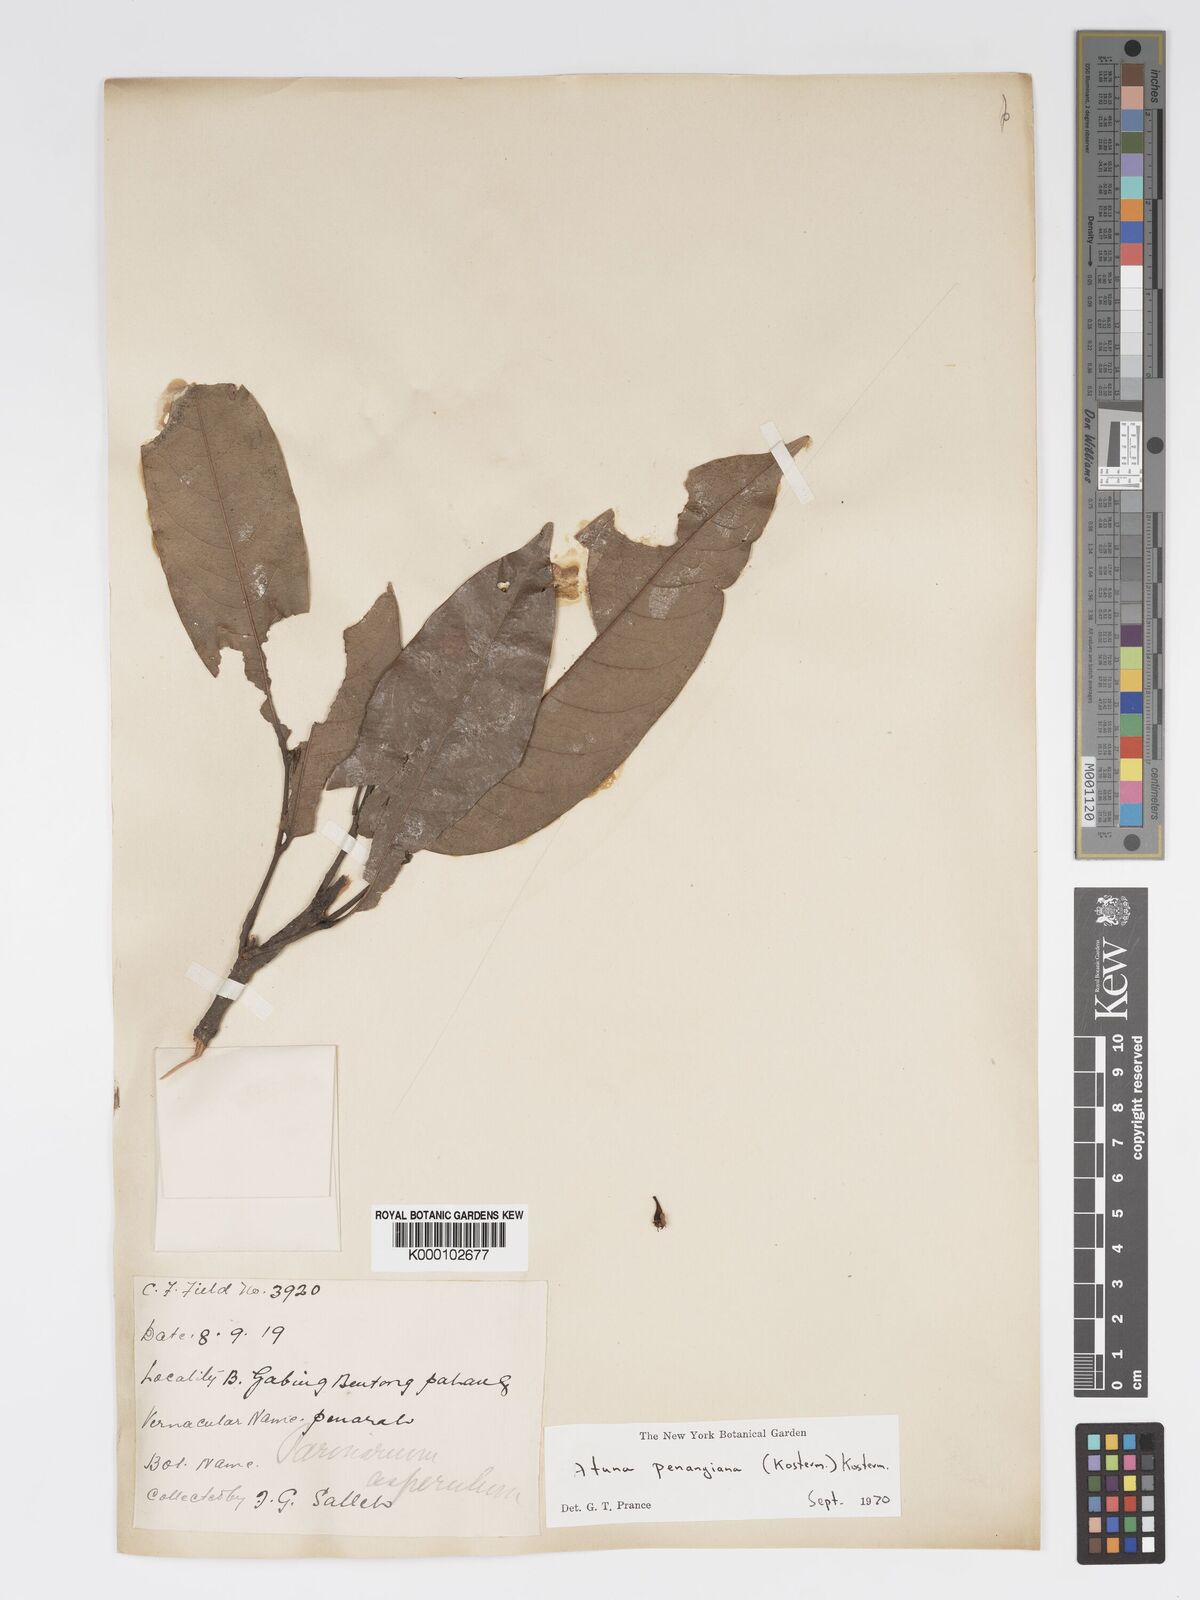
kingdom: Plantae
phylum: Tracheophyta
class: Magnoliopsida
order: Malpighiales
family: Chrysobalanaceae
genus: Atuna
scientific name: Atuna penangiana
